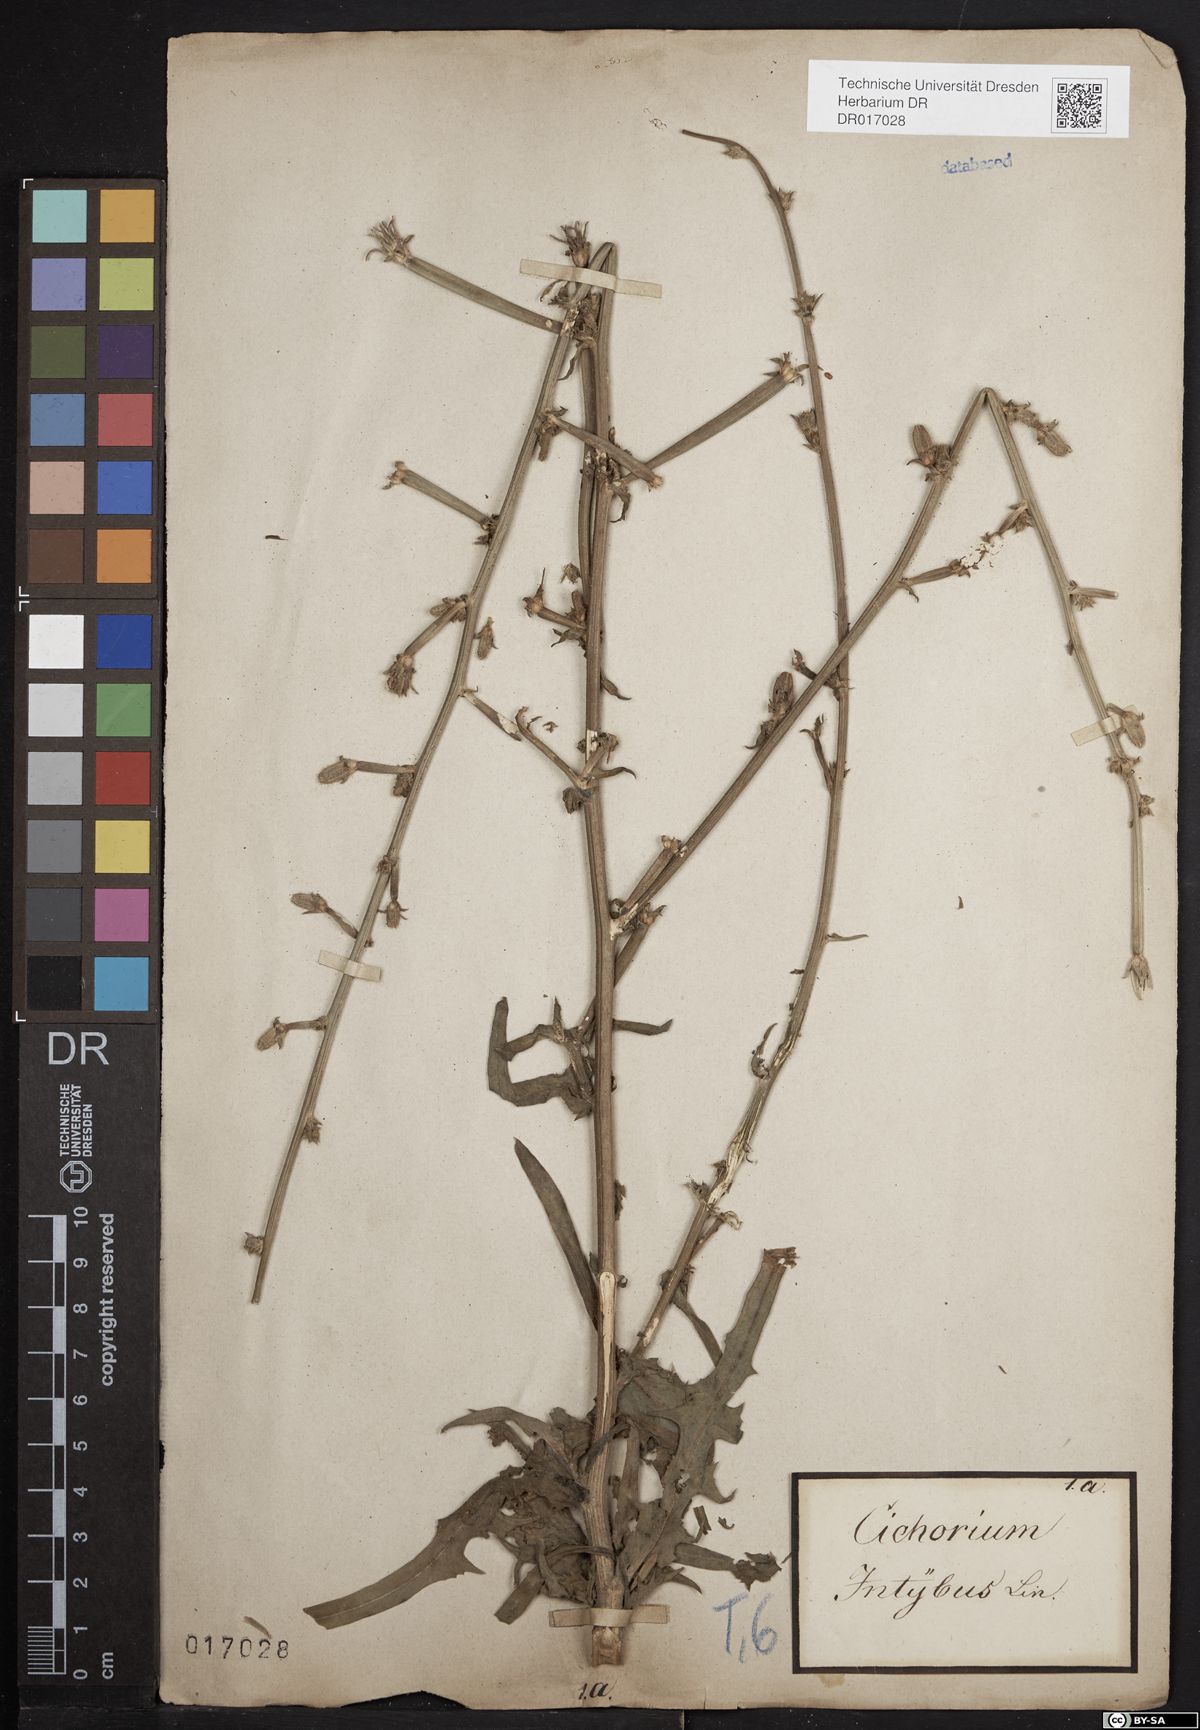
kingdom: Plantae
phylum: Tracheophyta
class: Magnoliopsida
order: Asterales
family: Asteraceae
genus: Cichorium
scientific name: Cichorium intybus
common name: Chicory
